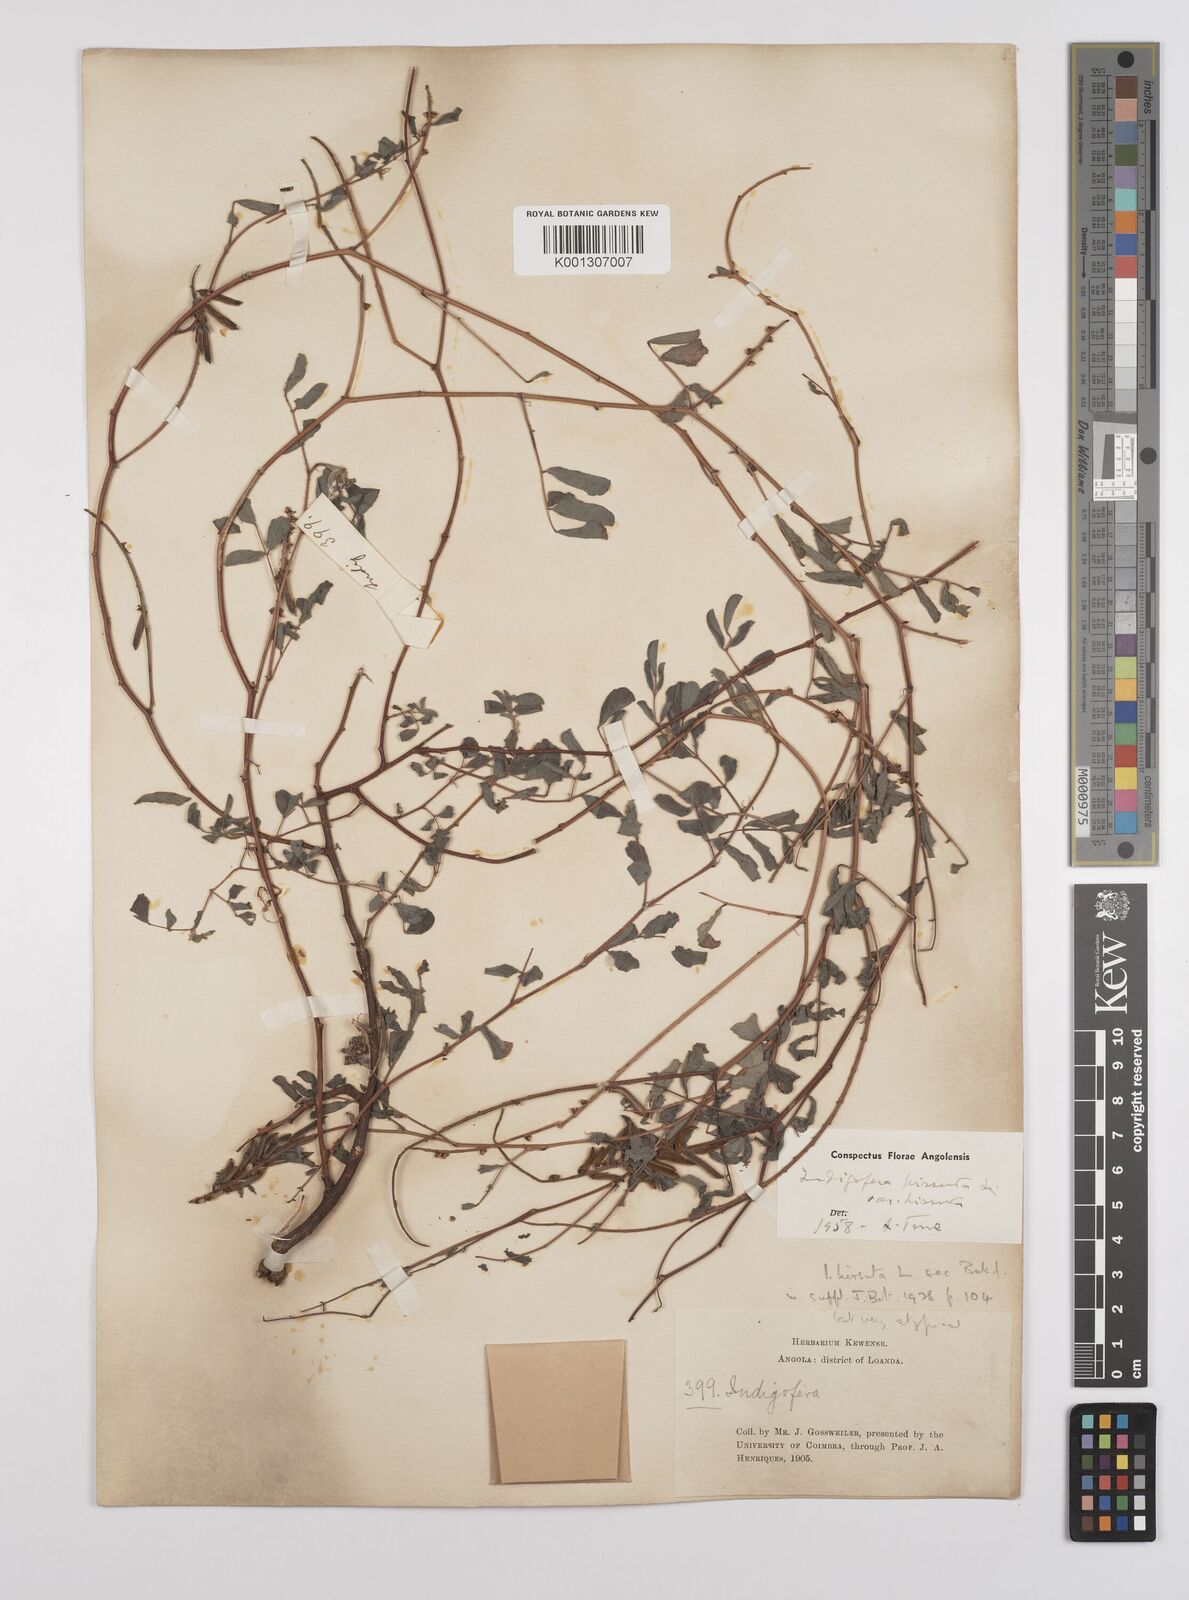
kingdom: Plantae
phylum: Tracheophyta
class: Magnoliopsida
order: Fabales
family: Fabaceae
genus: Indigofera
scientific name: Indigofera hirsuta
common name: Hairy indigo
